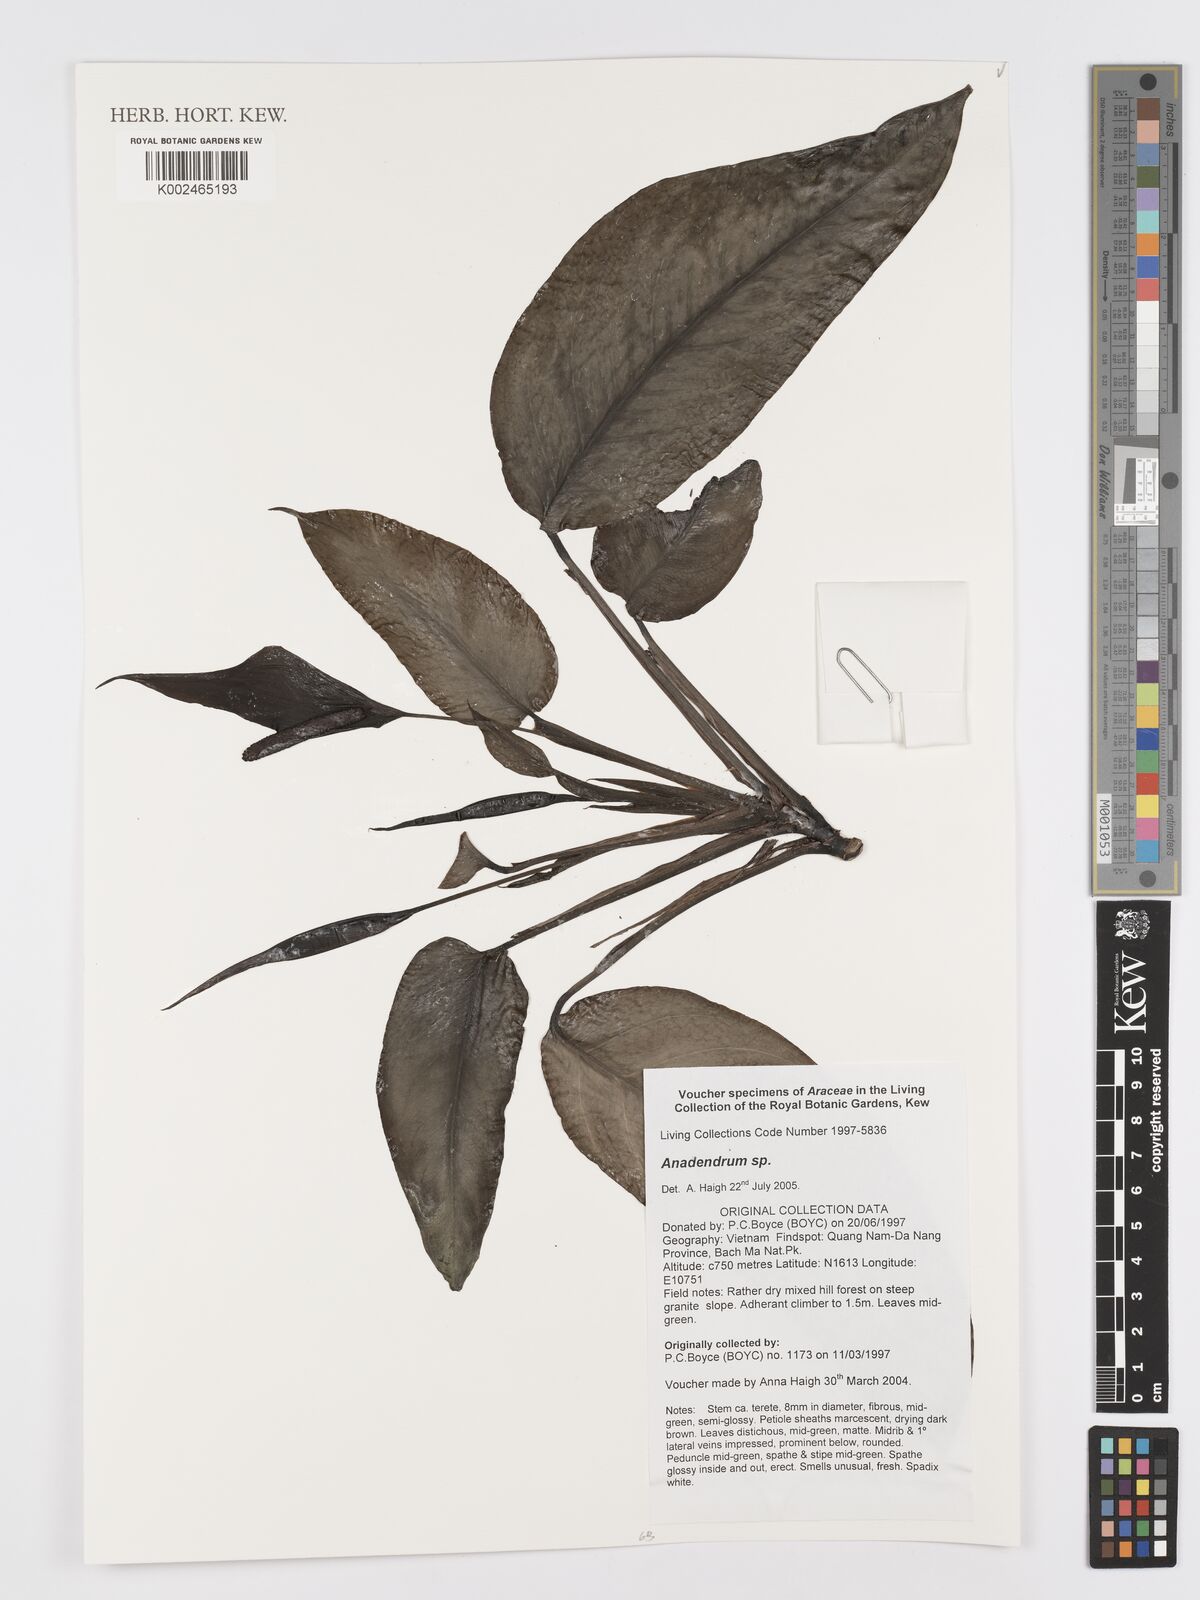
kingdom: Plantae
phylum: Tracheophyta
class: Liliopsida
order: Alismatales
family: Araceae
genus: Anadendrum
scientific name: Anadendrum
